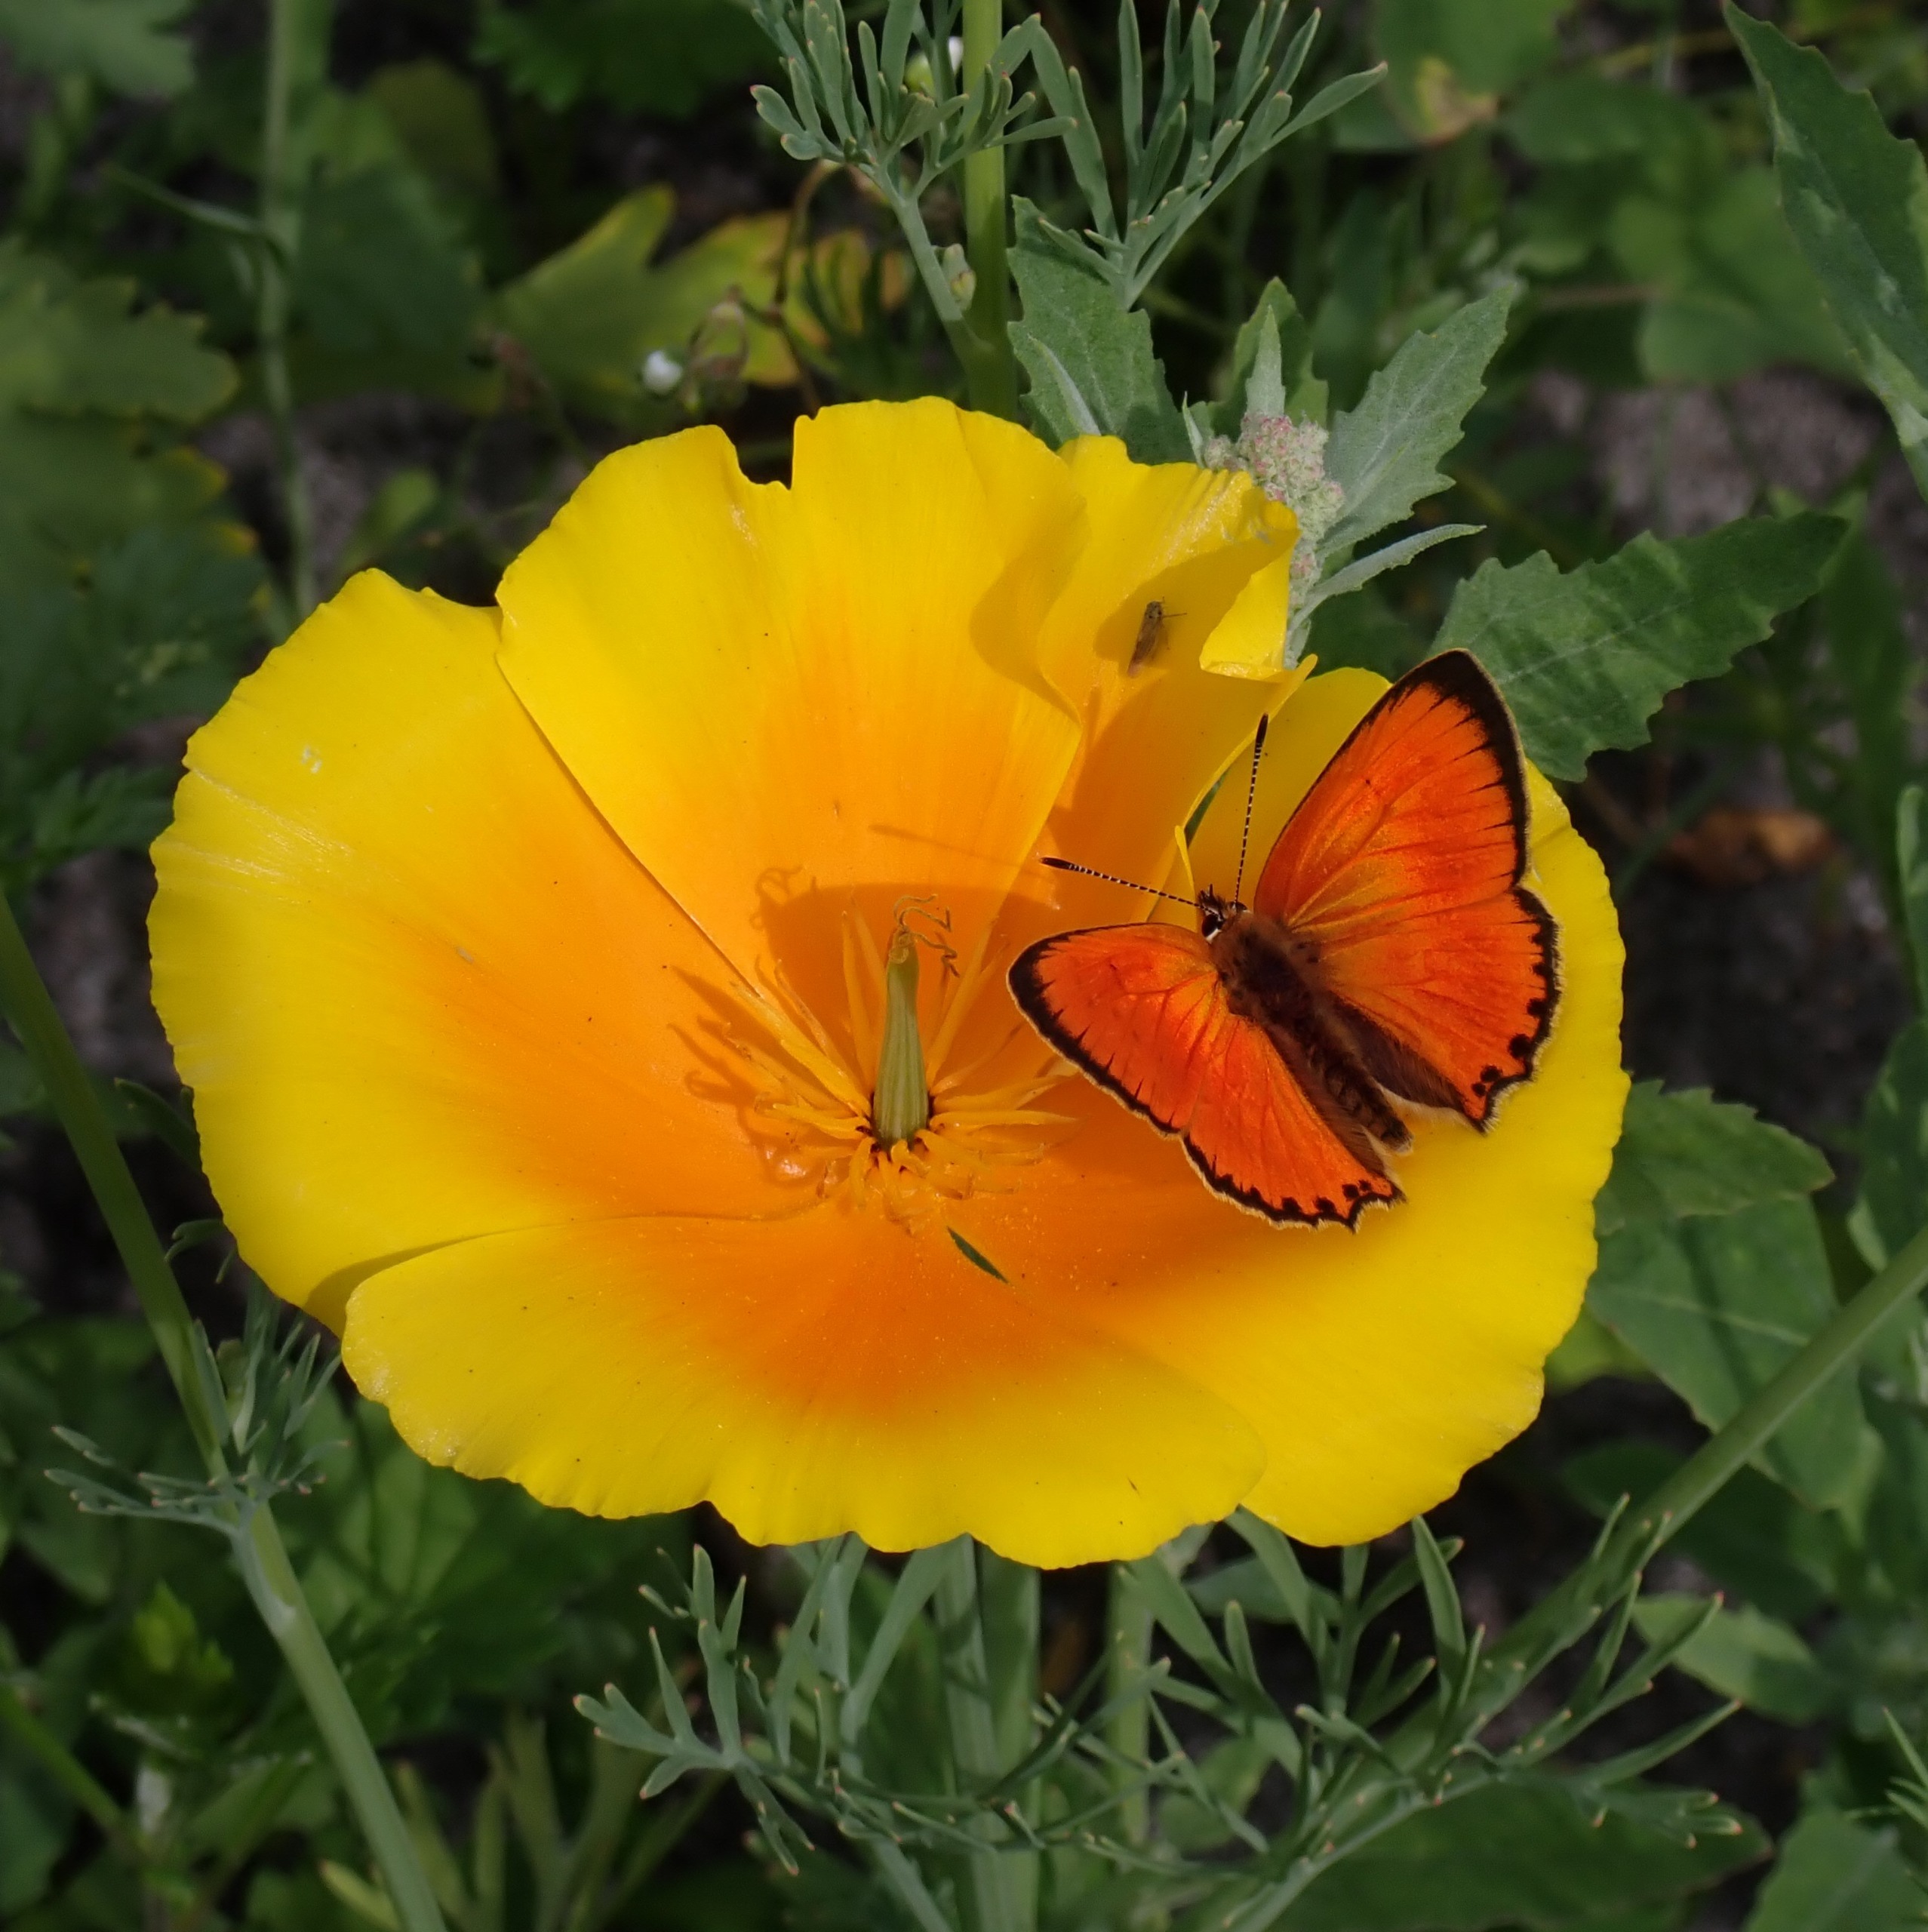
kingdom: Animalia
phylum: Arthropoda
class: Insecta
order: Lepidoptera
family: Lycaenidae
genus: Lycaena
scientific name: Lycaena virgaureae
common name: Dukatsommerfugl
